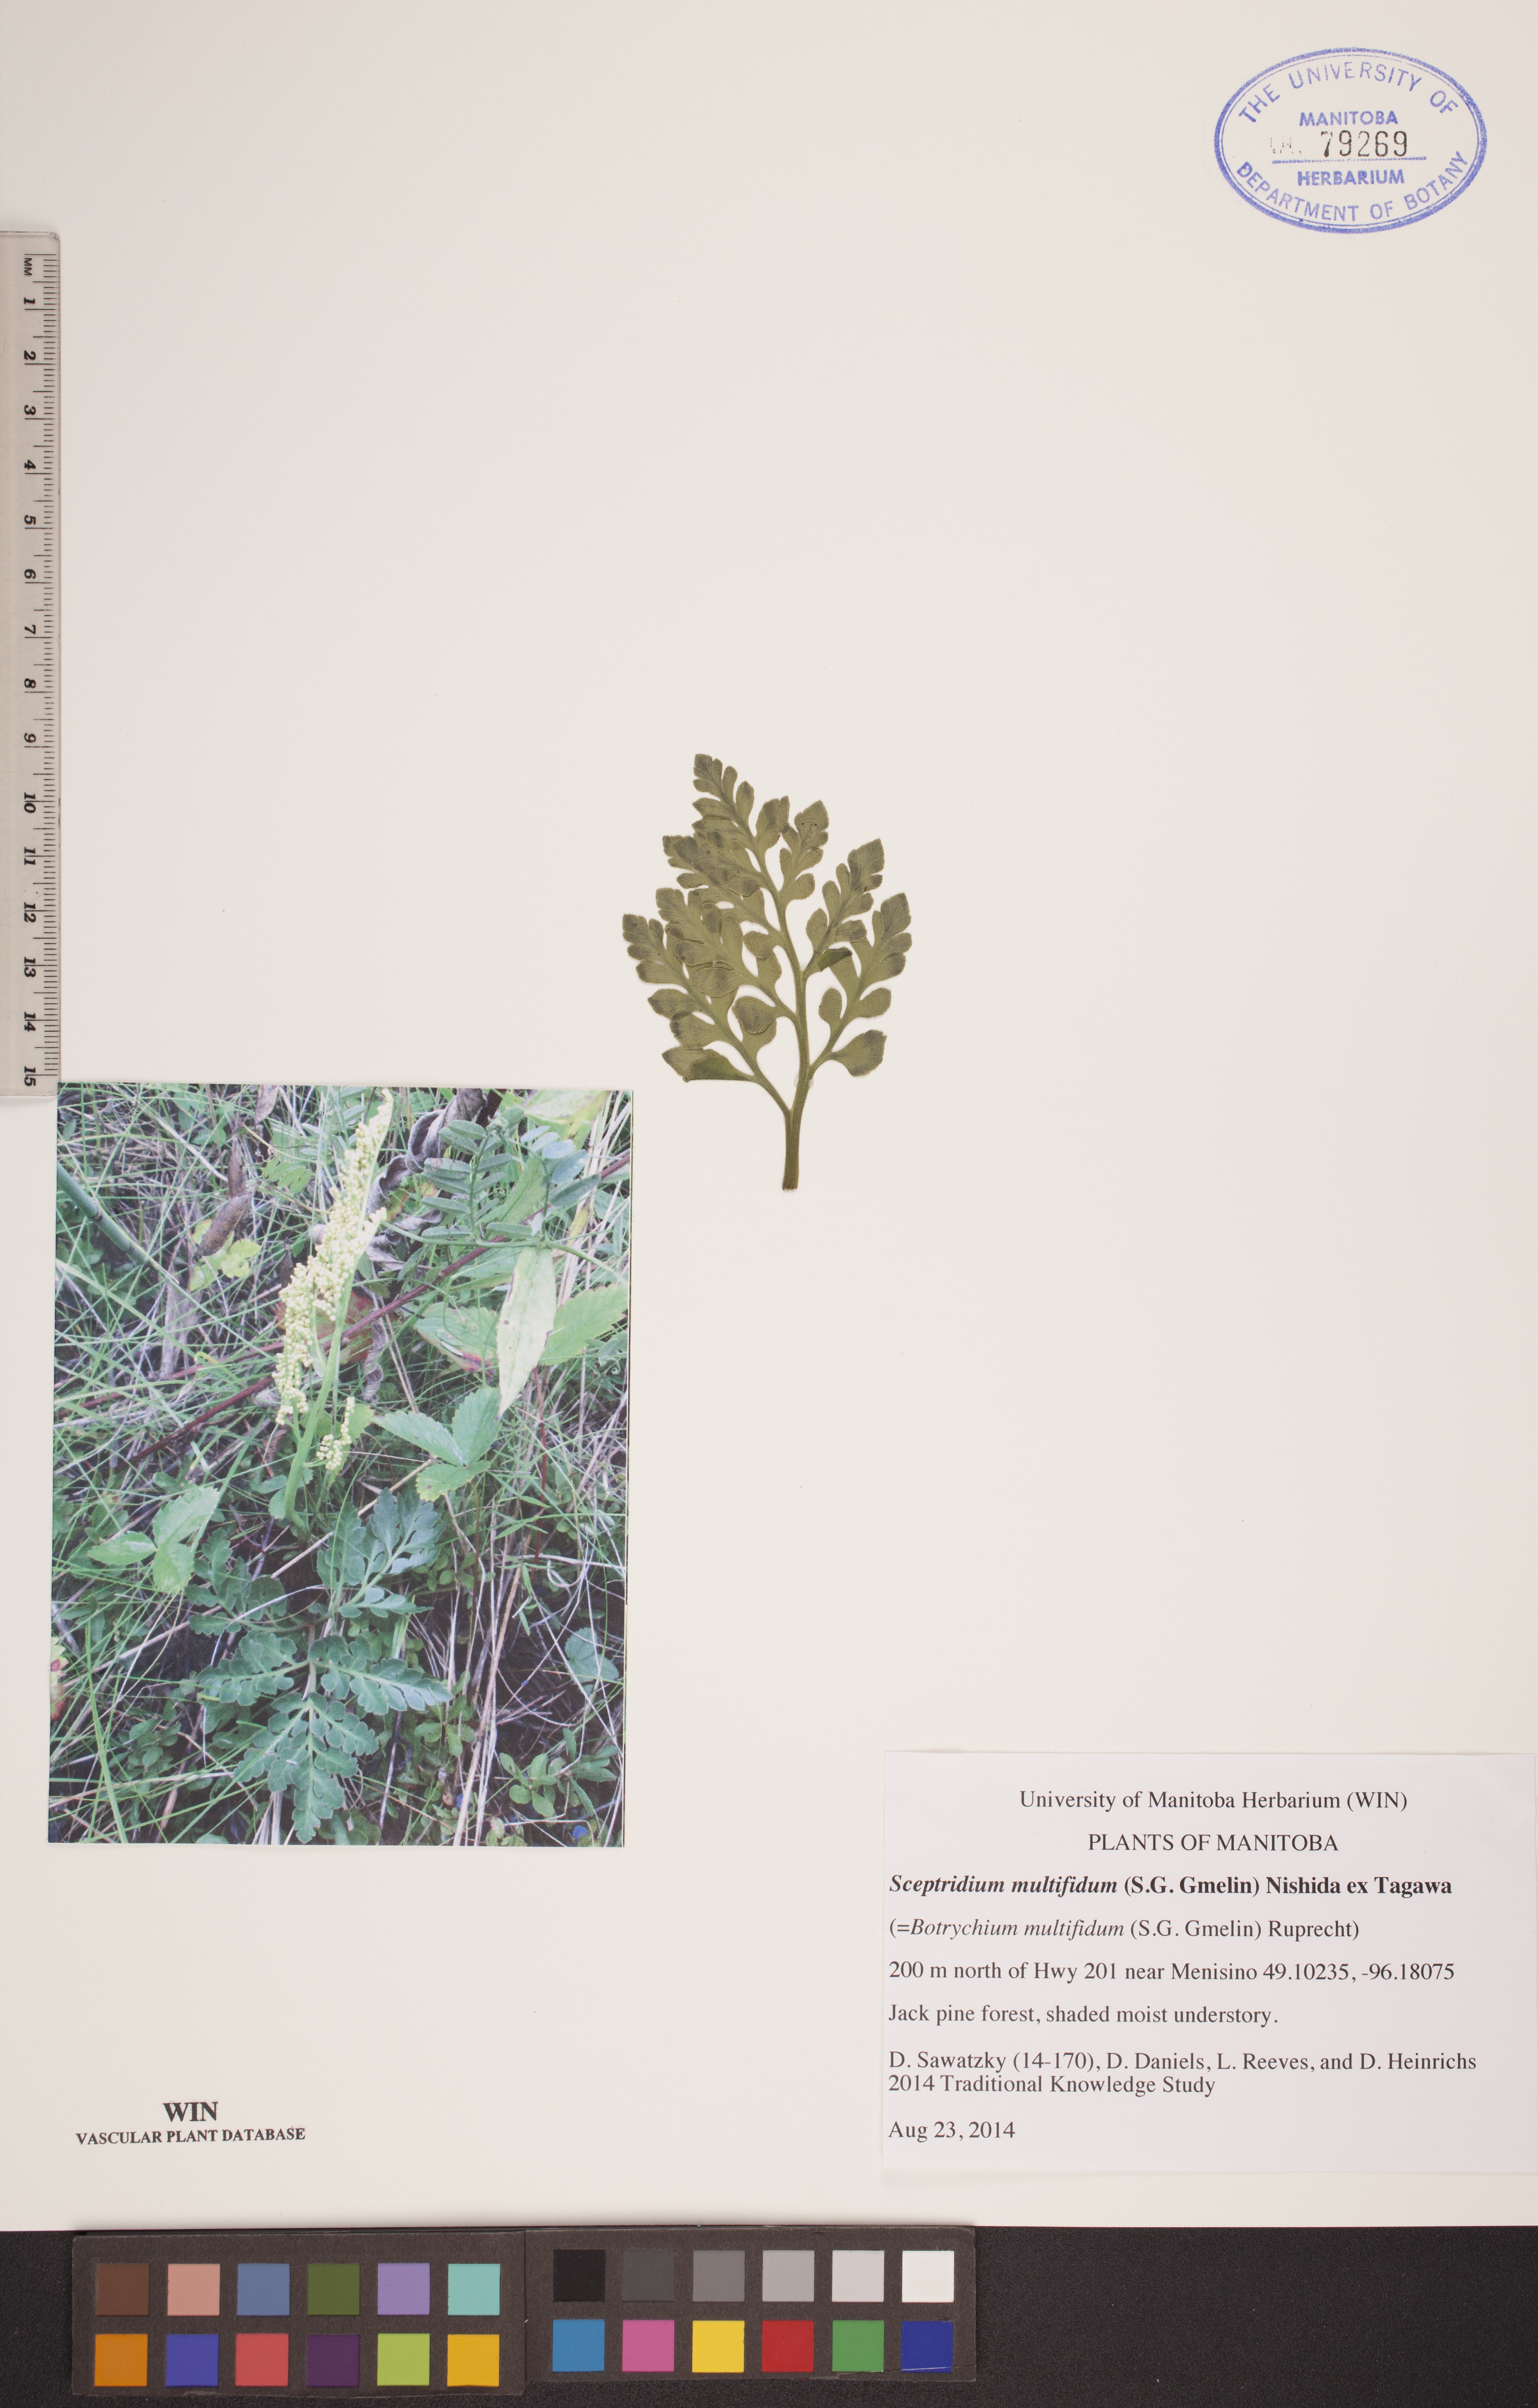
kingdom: Plantae
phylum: Tracheophyta
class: Polypodiopsida
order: Ophioglossales
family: Ophioglossaceae
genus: Sceptridium
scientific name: Sceptridium multifidum
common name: Leathery grape fern
